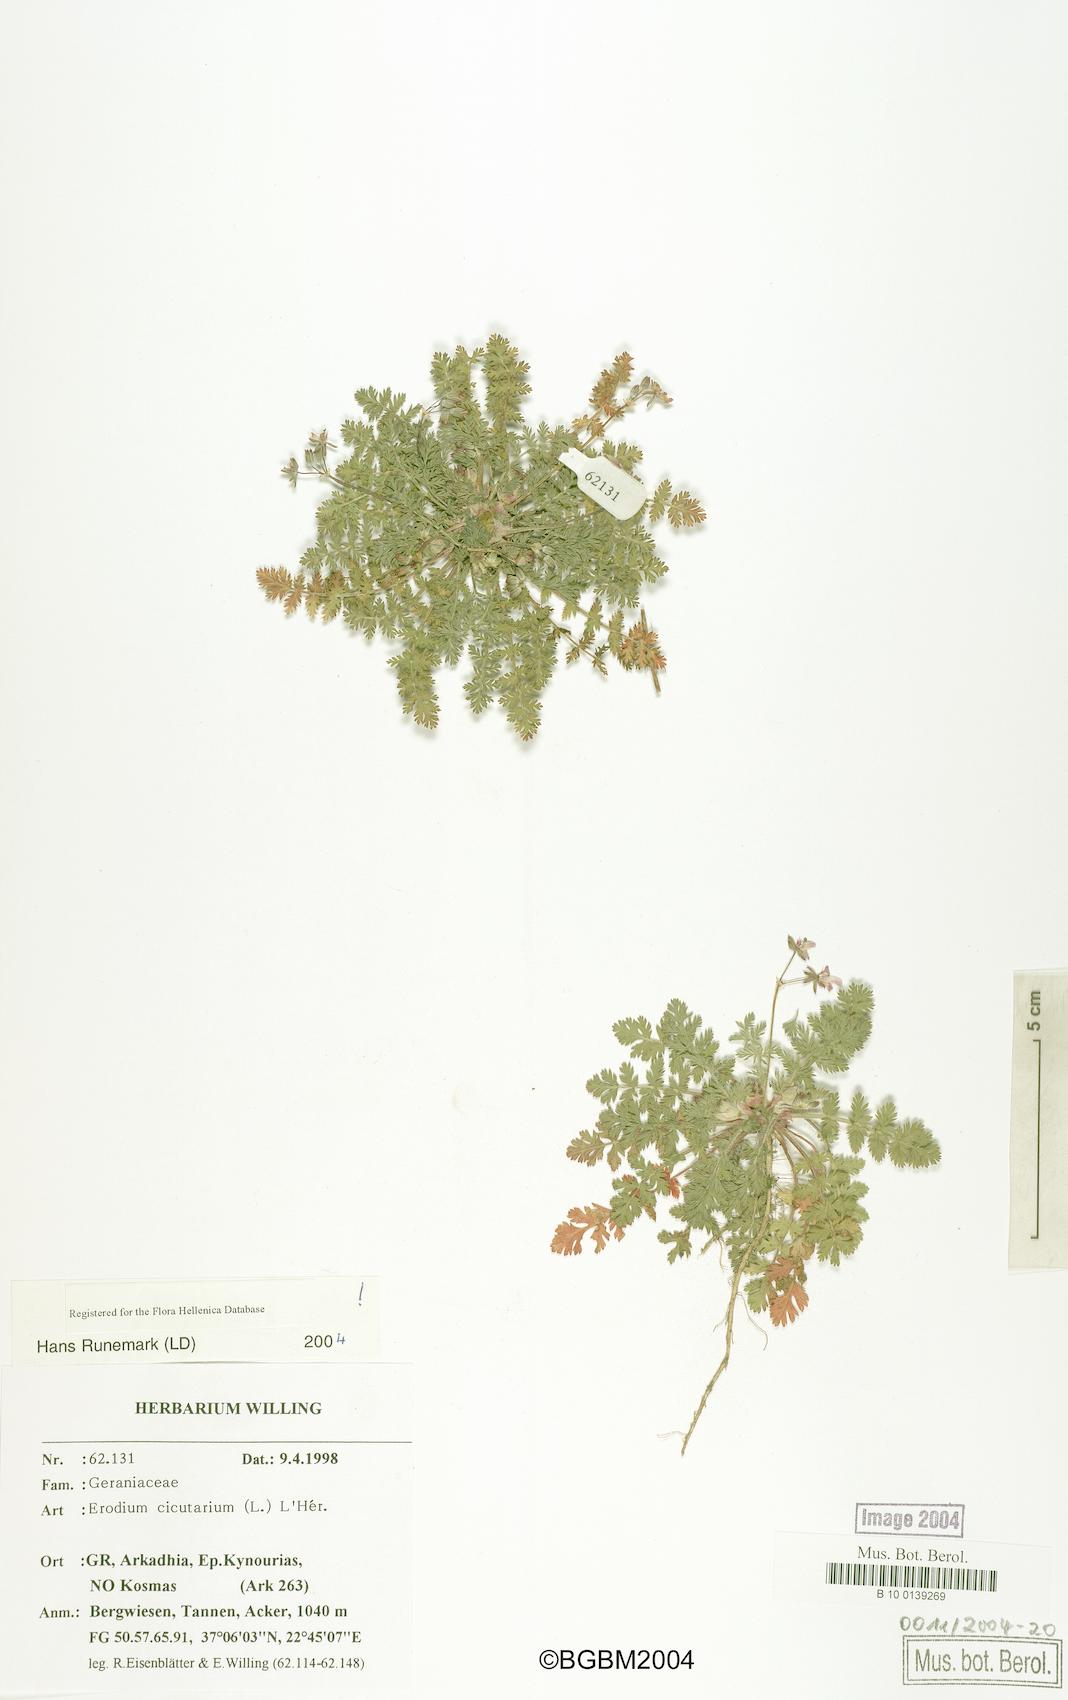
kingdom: Plantae
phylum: Tracheophyta
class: Magnoliopsida
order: Geraniales
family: Geraniaceae
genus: Erodium
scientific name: Erodium cicutarium
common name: Common stork's-bill
